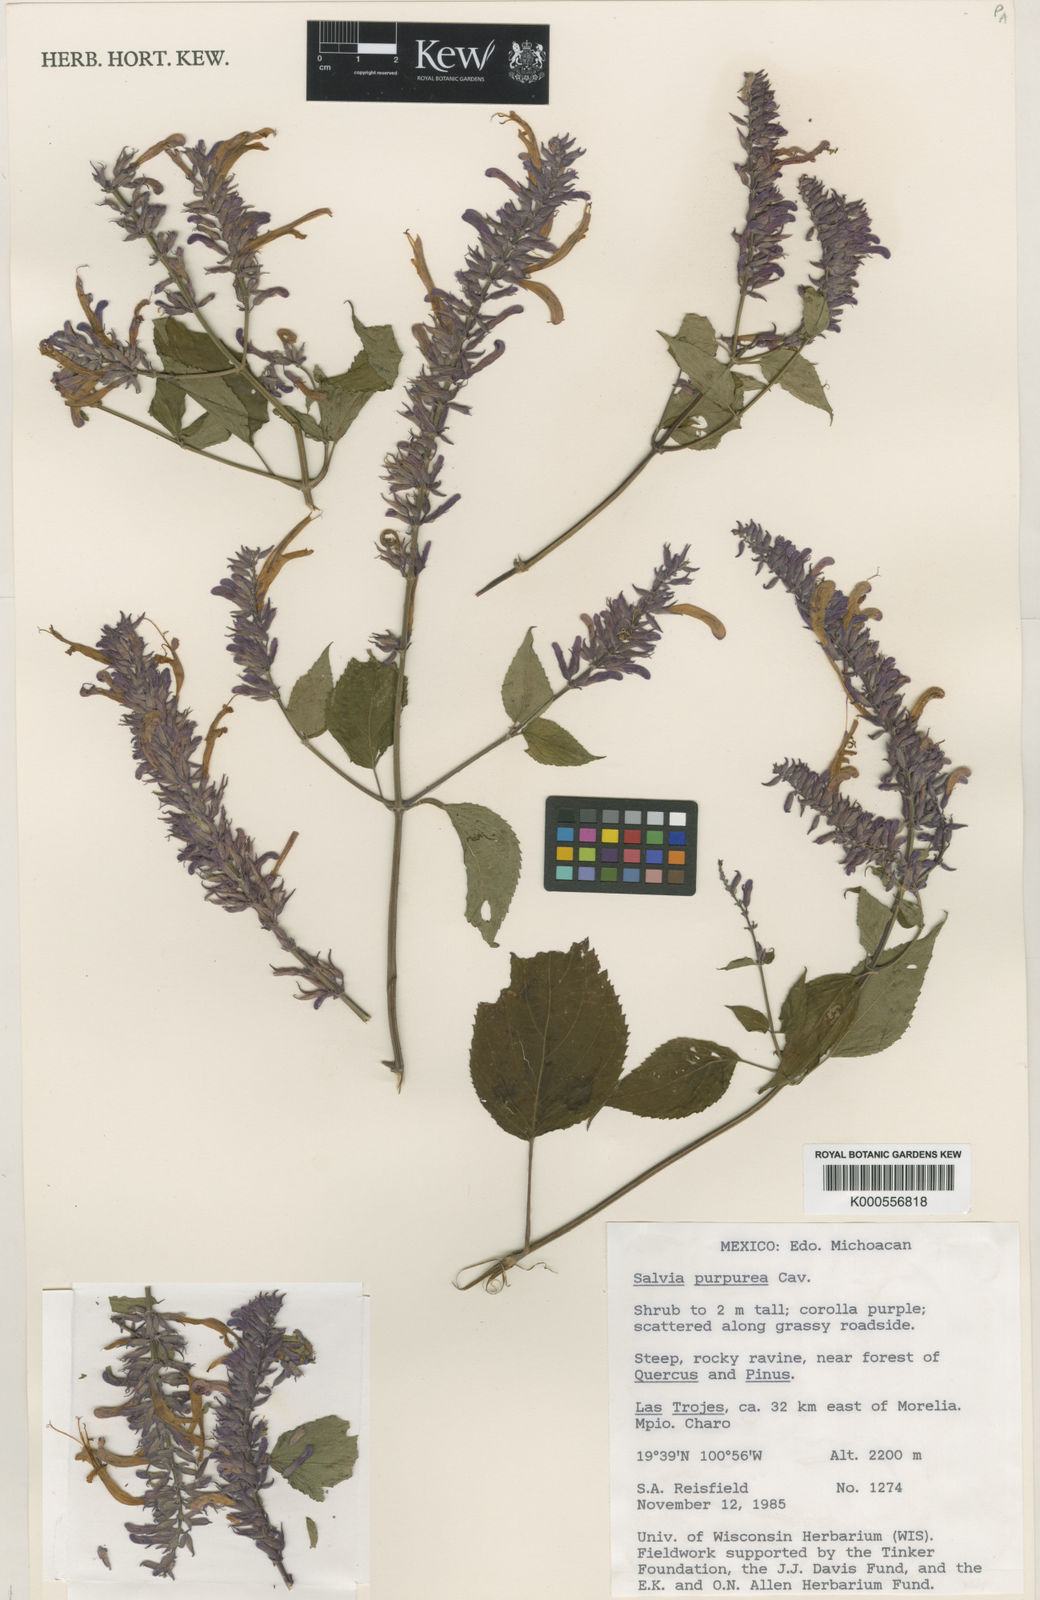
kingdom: Plantae
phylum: Tracheophyta
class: Magnoliopsida
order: Lamiales
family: Lamiaceae
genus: Salvia
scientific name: Salvia
